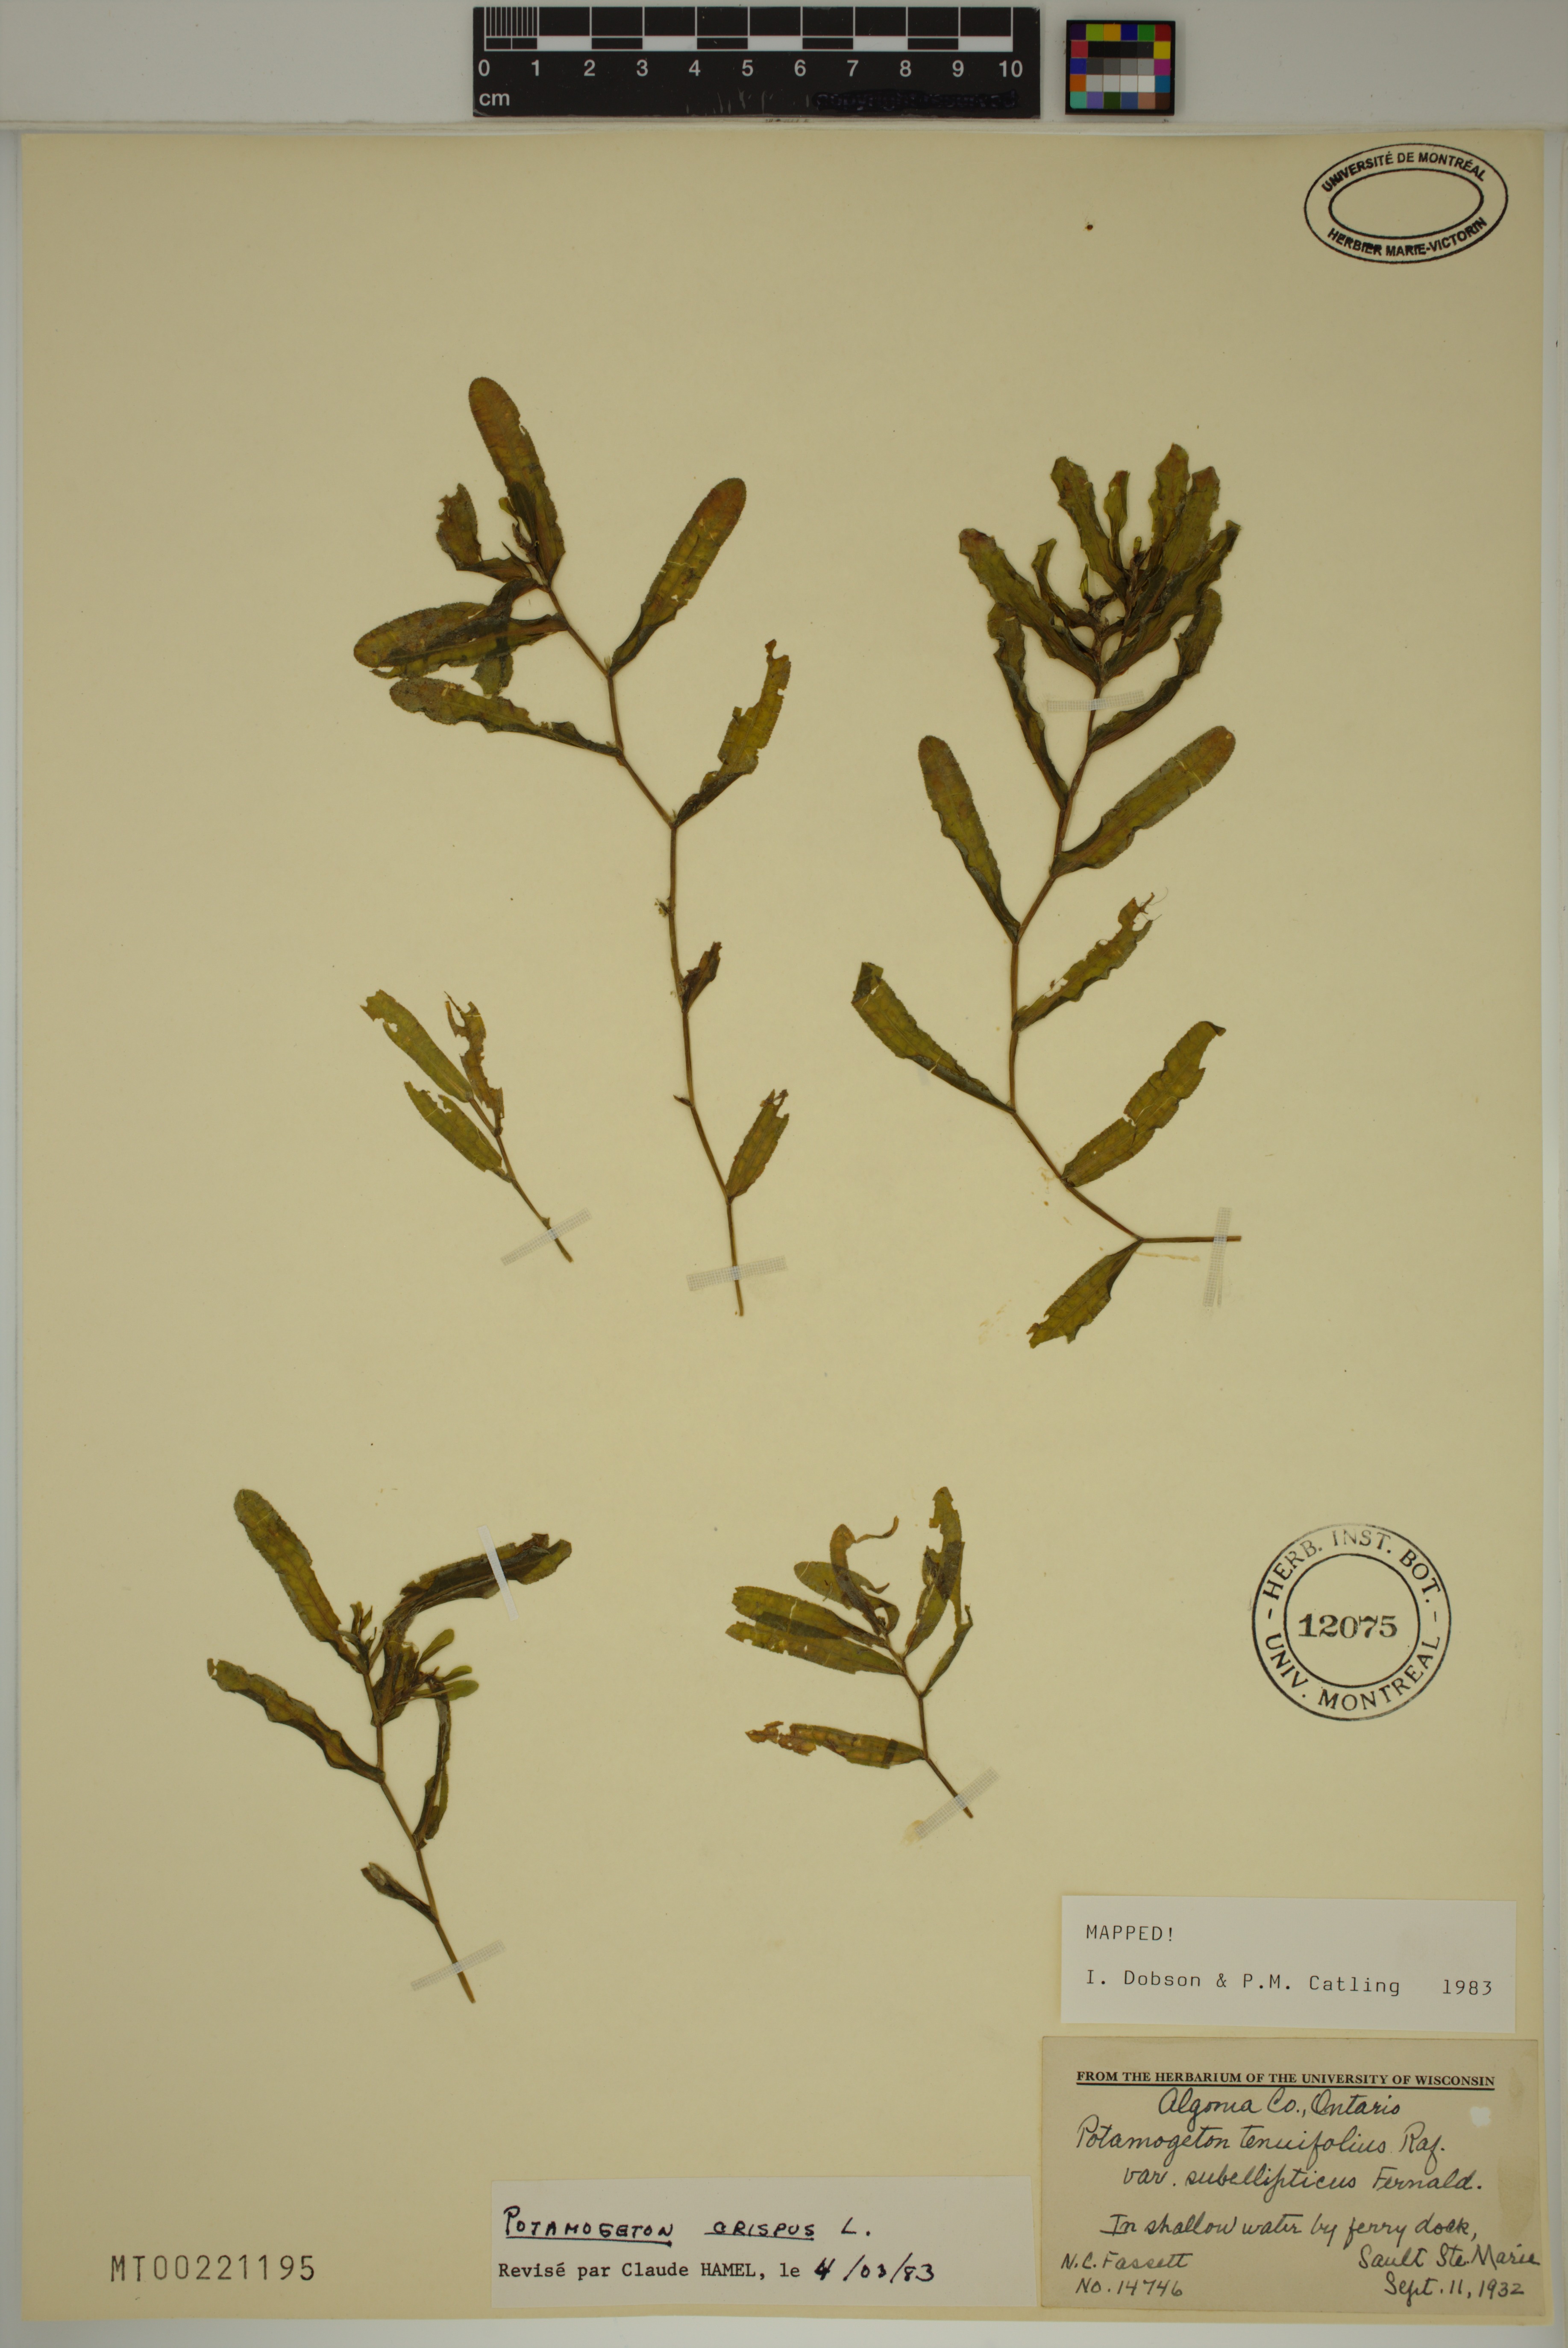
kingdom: Plantae
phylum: Tracheophyta
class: Liliopsida
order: Alismatales
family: Potamogetonaceae
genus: Potamogeton
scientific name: Potamogeton crispus
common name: Curled pondweed
